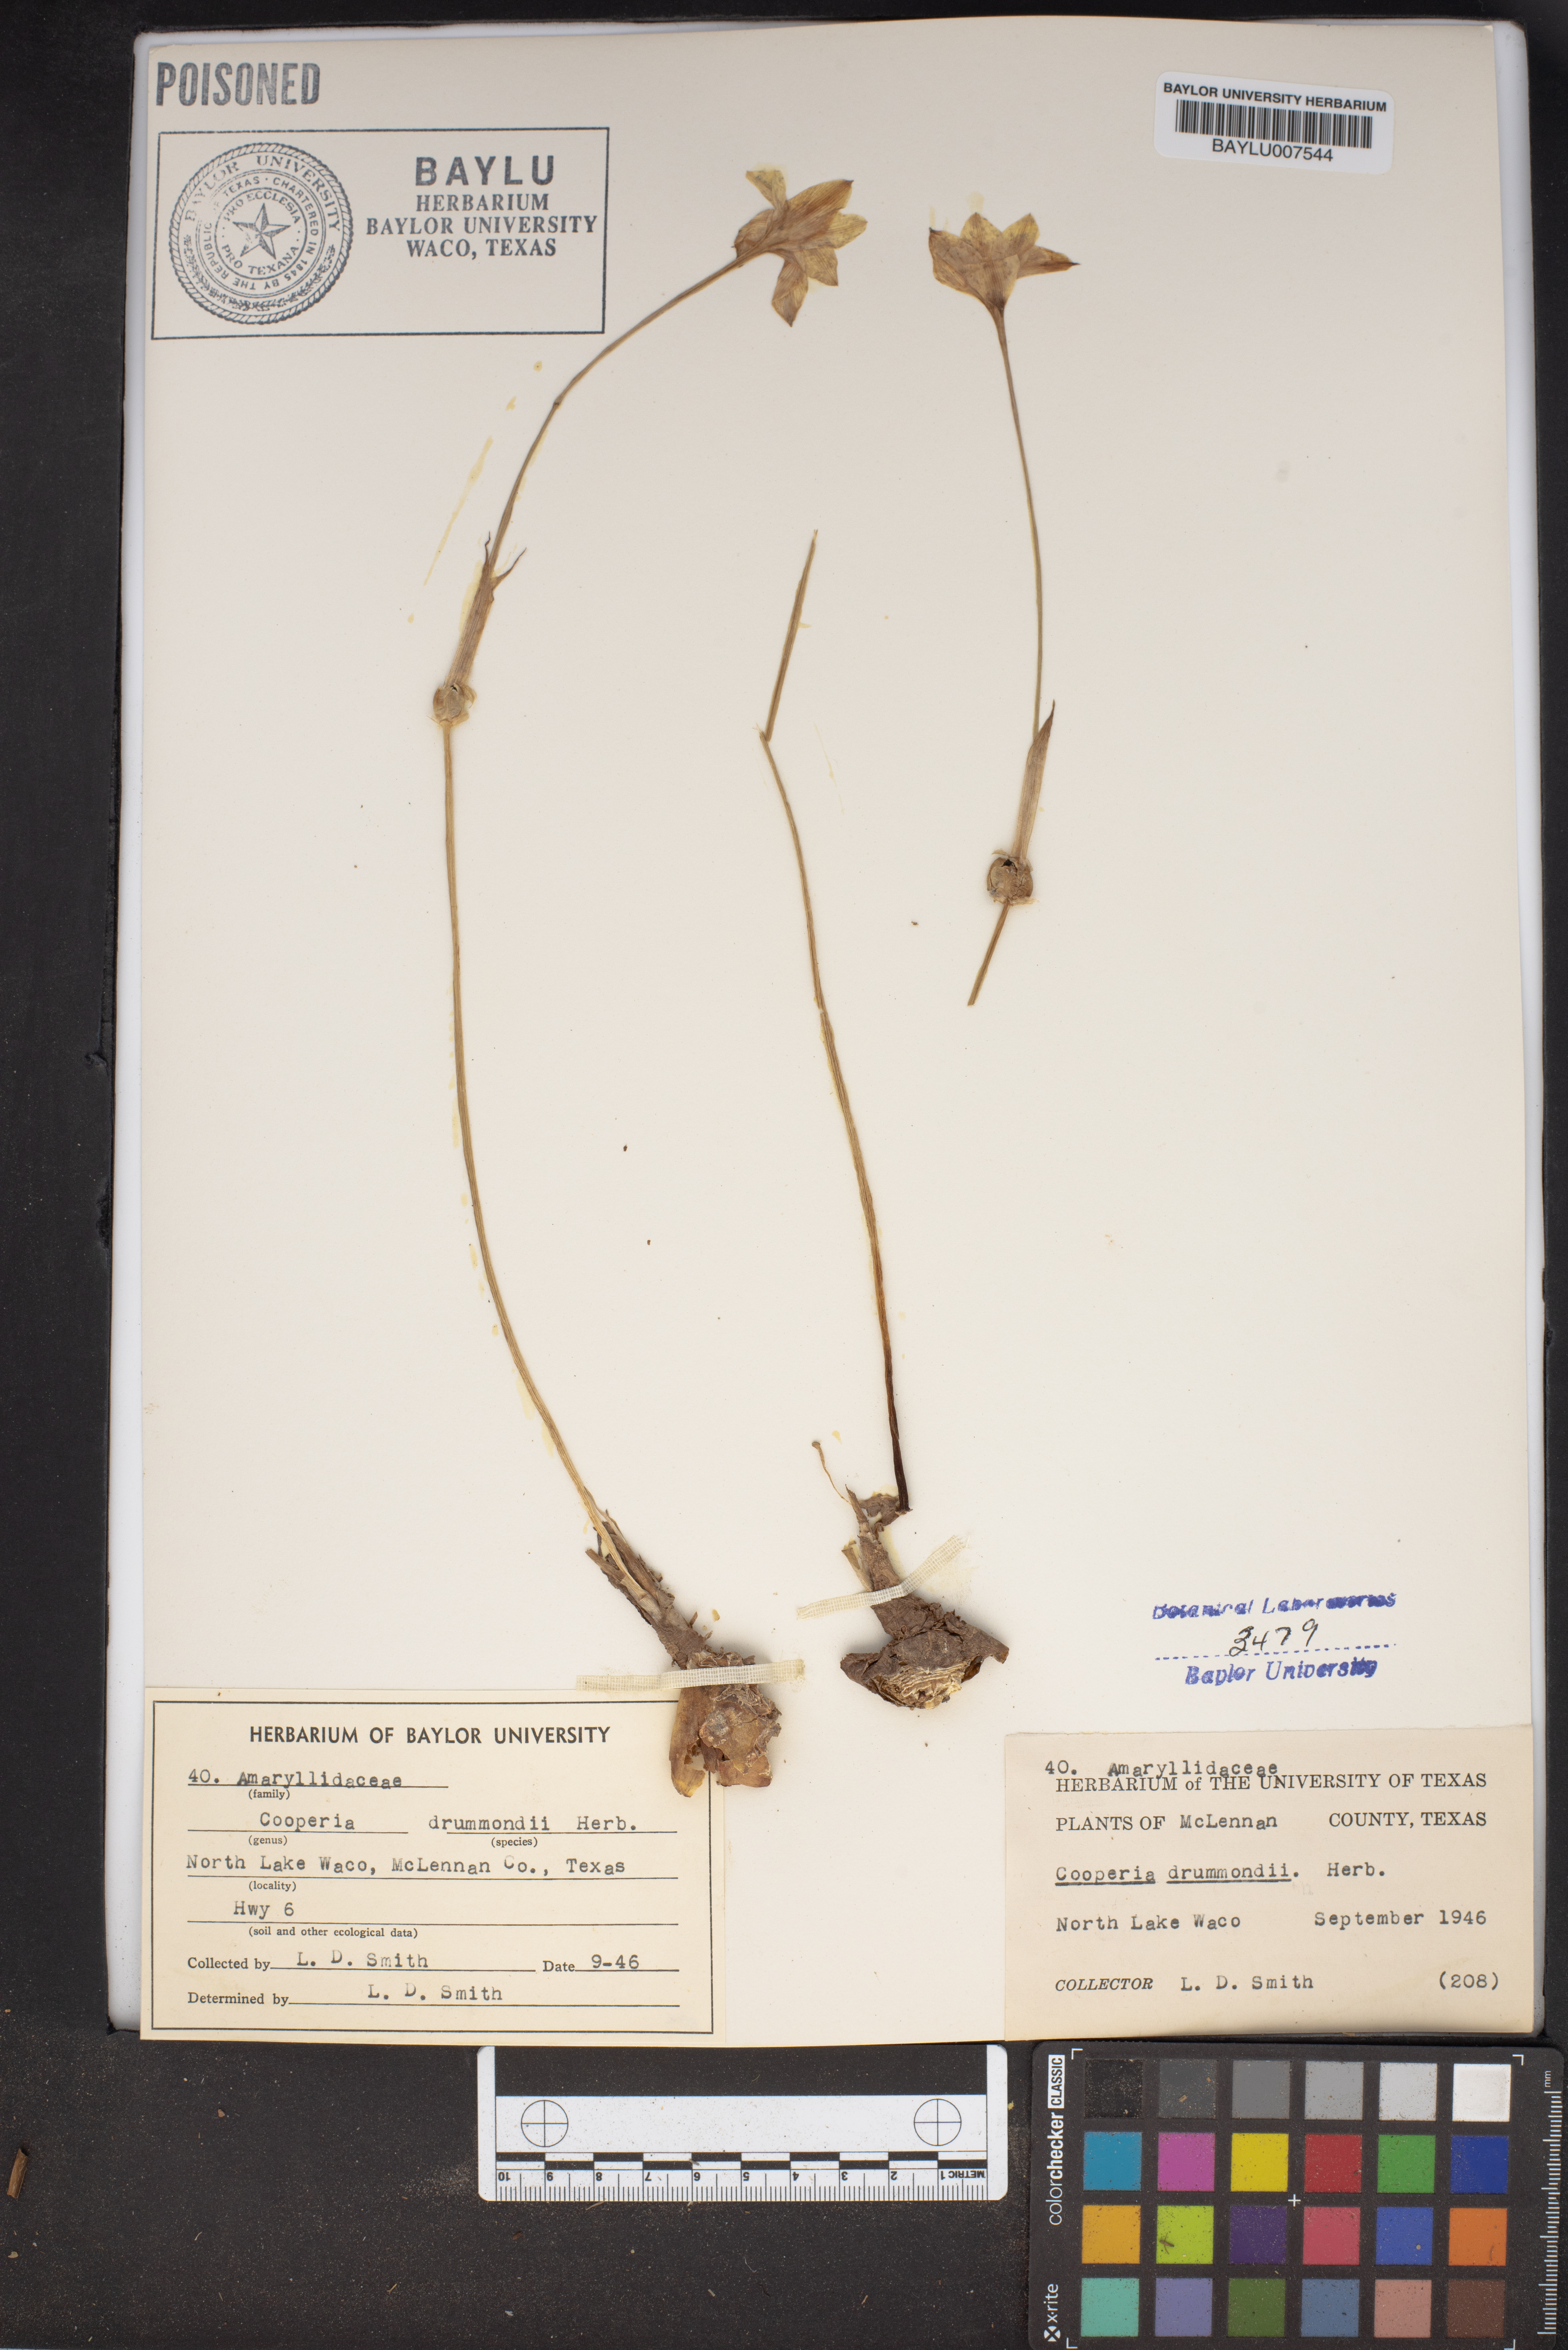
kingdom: Plantae
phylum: Tracheophyta
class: Liliopsida
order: Asparagales
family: Amaryllidaceae
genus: Zephyranthes
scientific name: Zephyranthes chlorosolen
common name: Evening rain-lily
